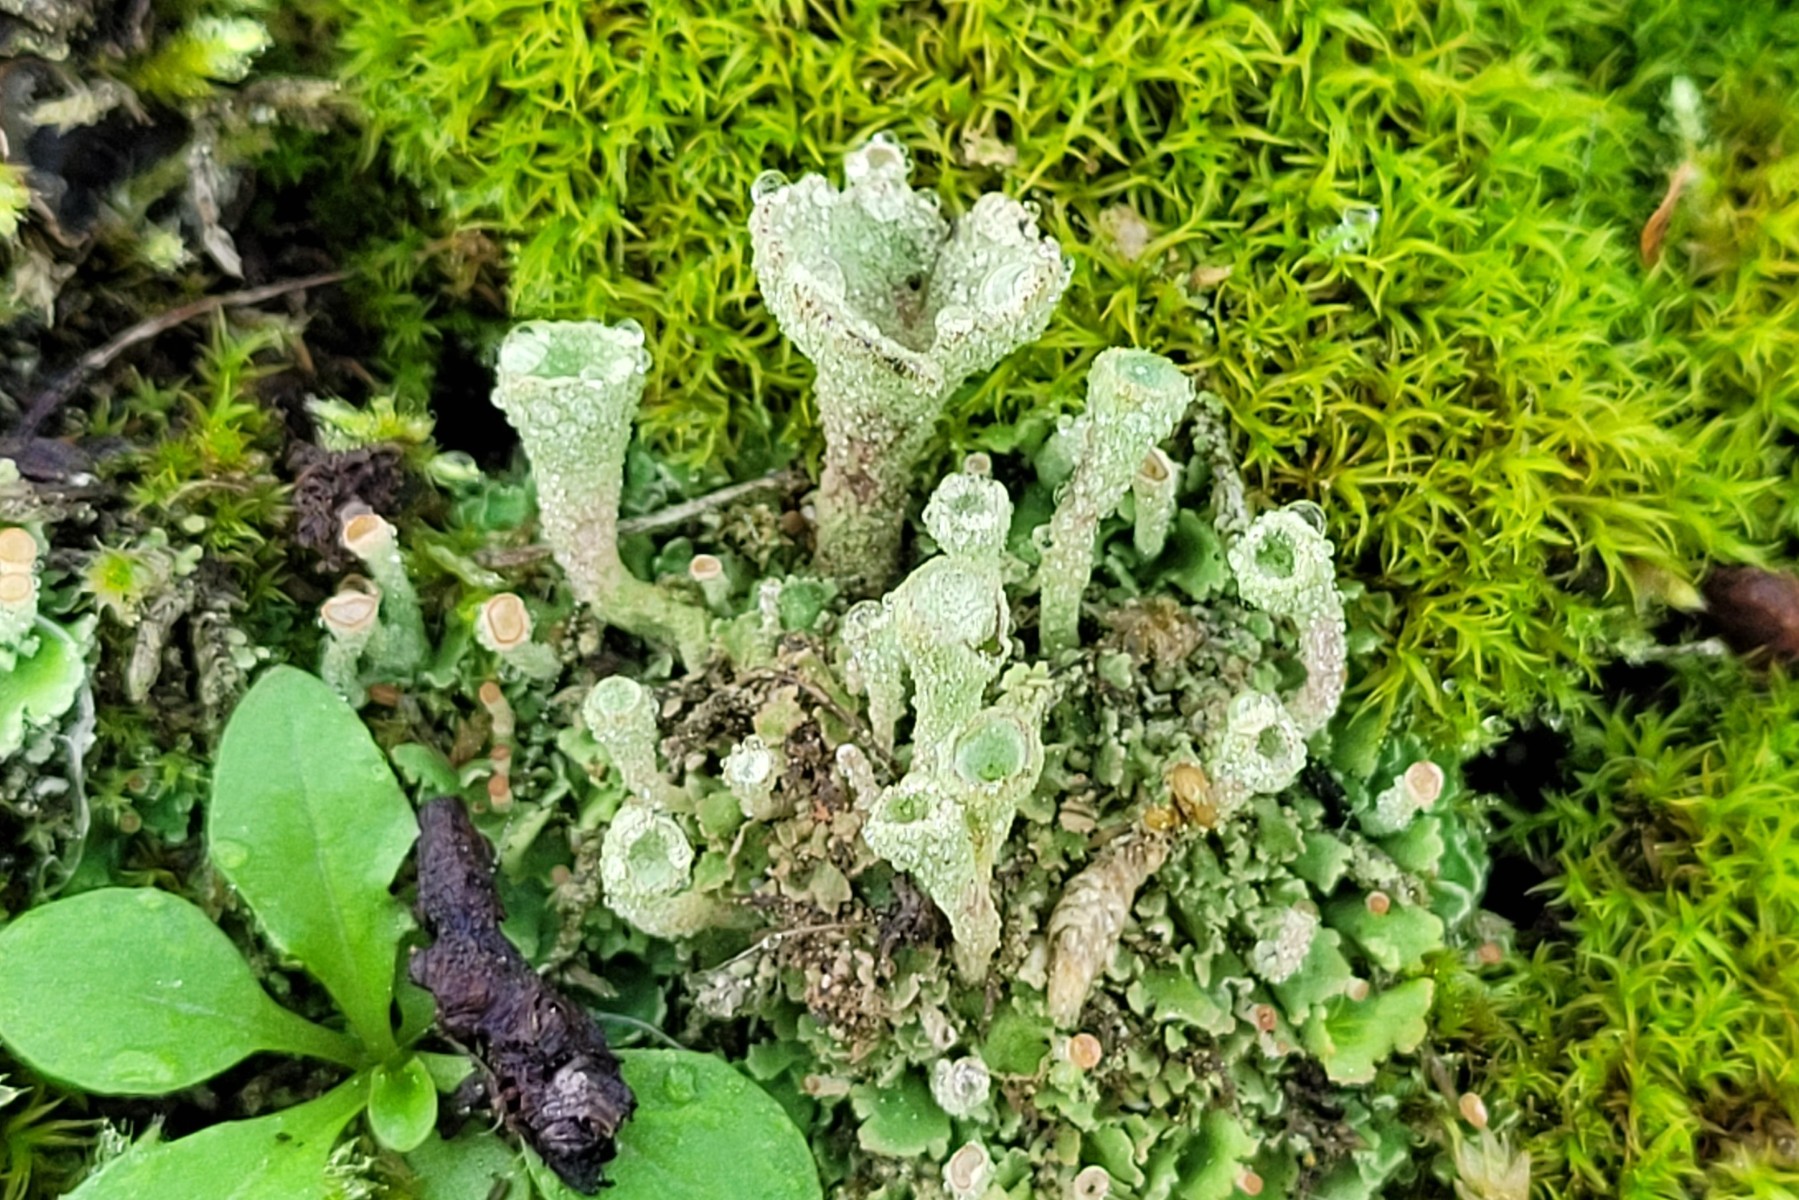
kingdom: Fungi
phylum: Ascomycota
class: Lecanoromycetes
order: Lecanorales
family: Cladoniaceae
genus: Cladonia
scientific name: Cladonia fimbriata
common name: bleggrøn bægerlav
